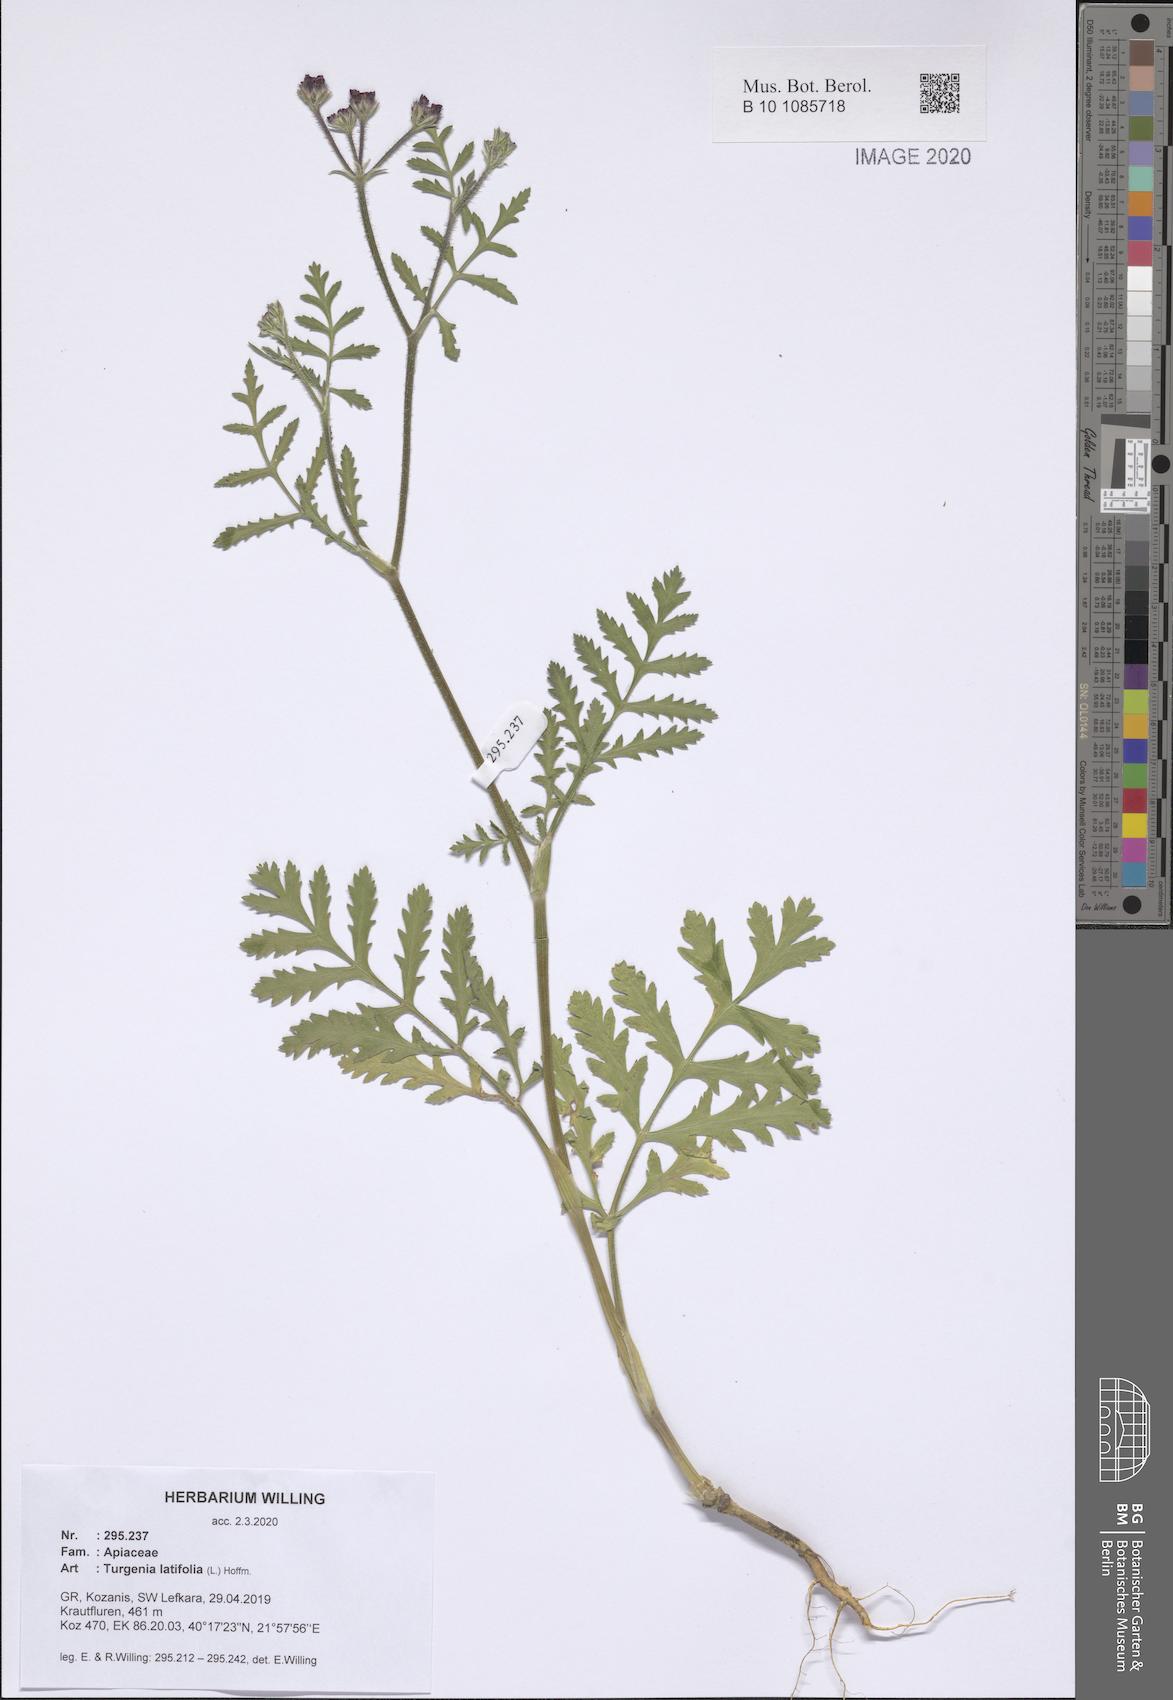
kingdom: Plantae
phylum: Tracheophyta
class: Magnoliopsida
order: Apiales
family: Apiaceae
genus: Turgenia
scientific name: Turgenia latifolia
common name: Greater bur-parsley
